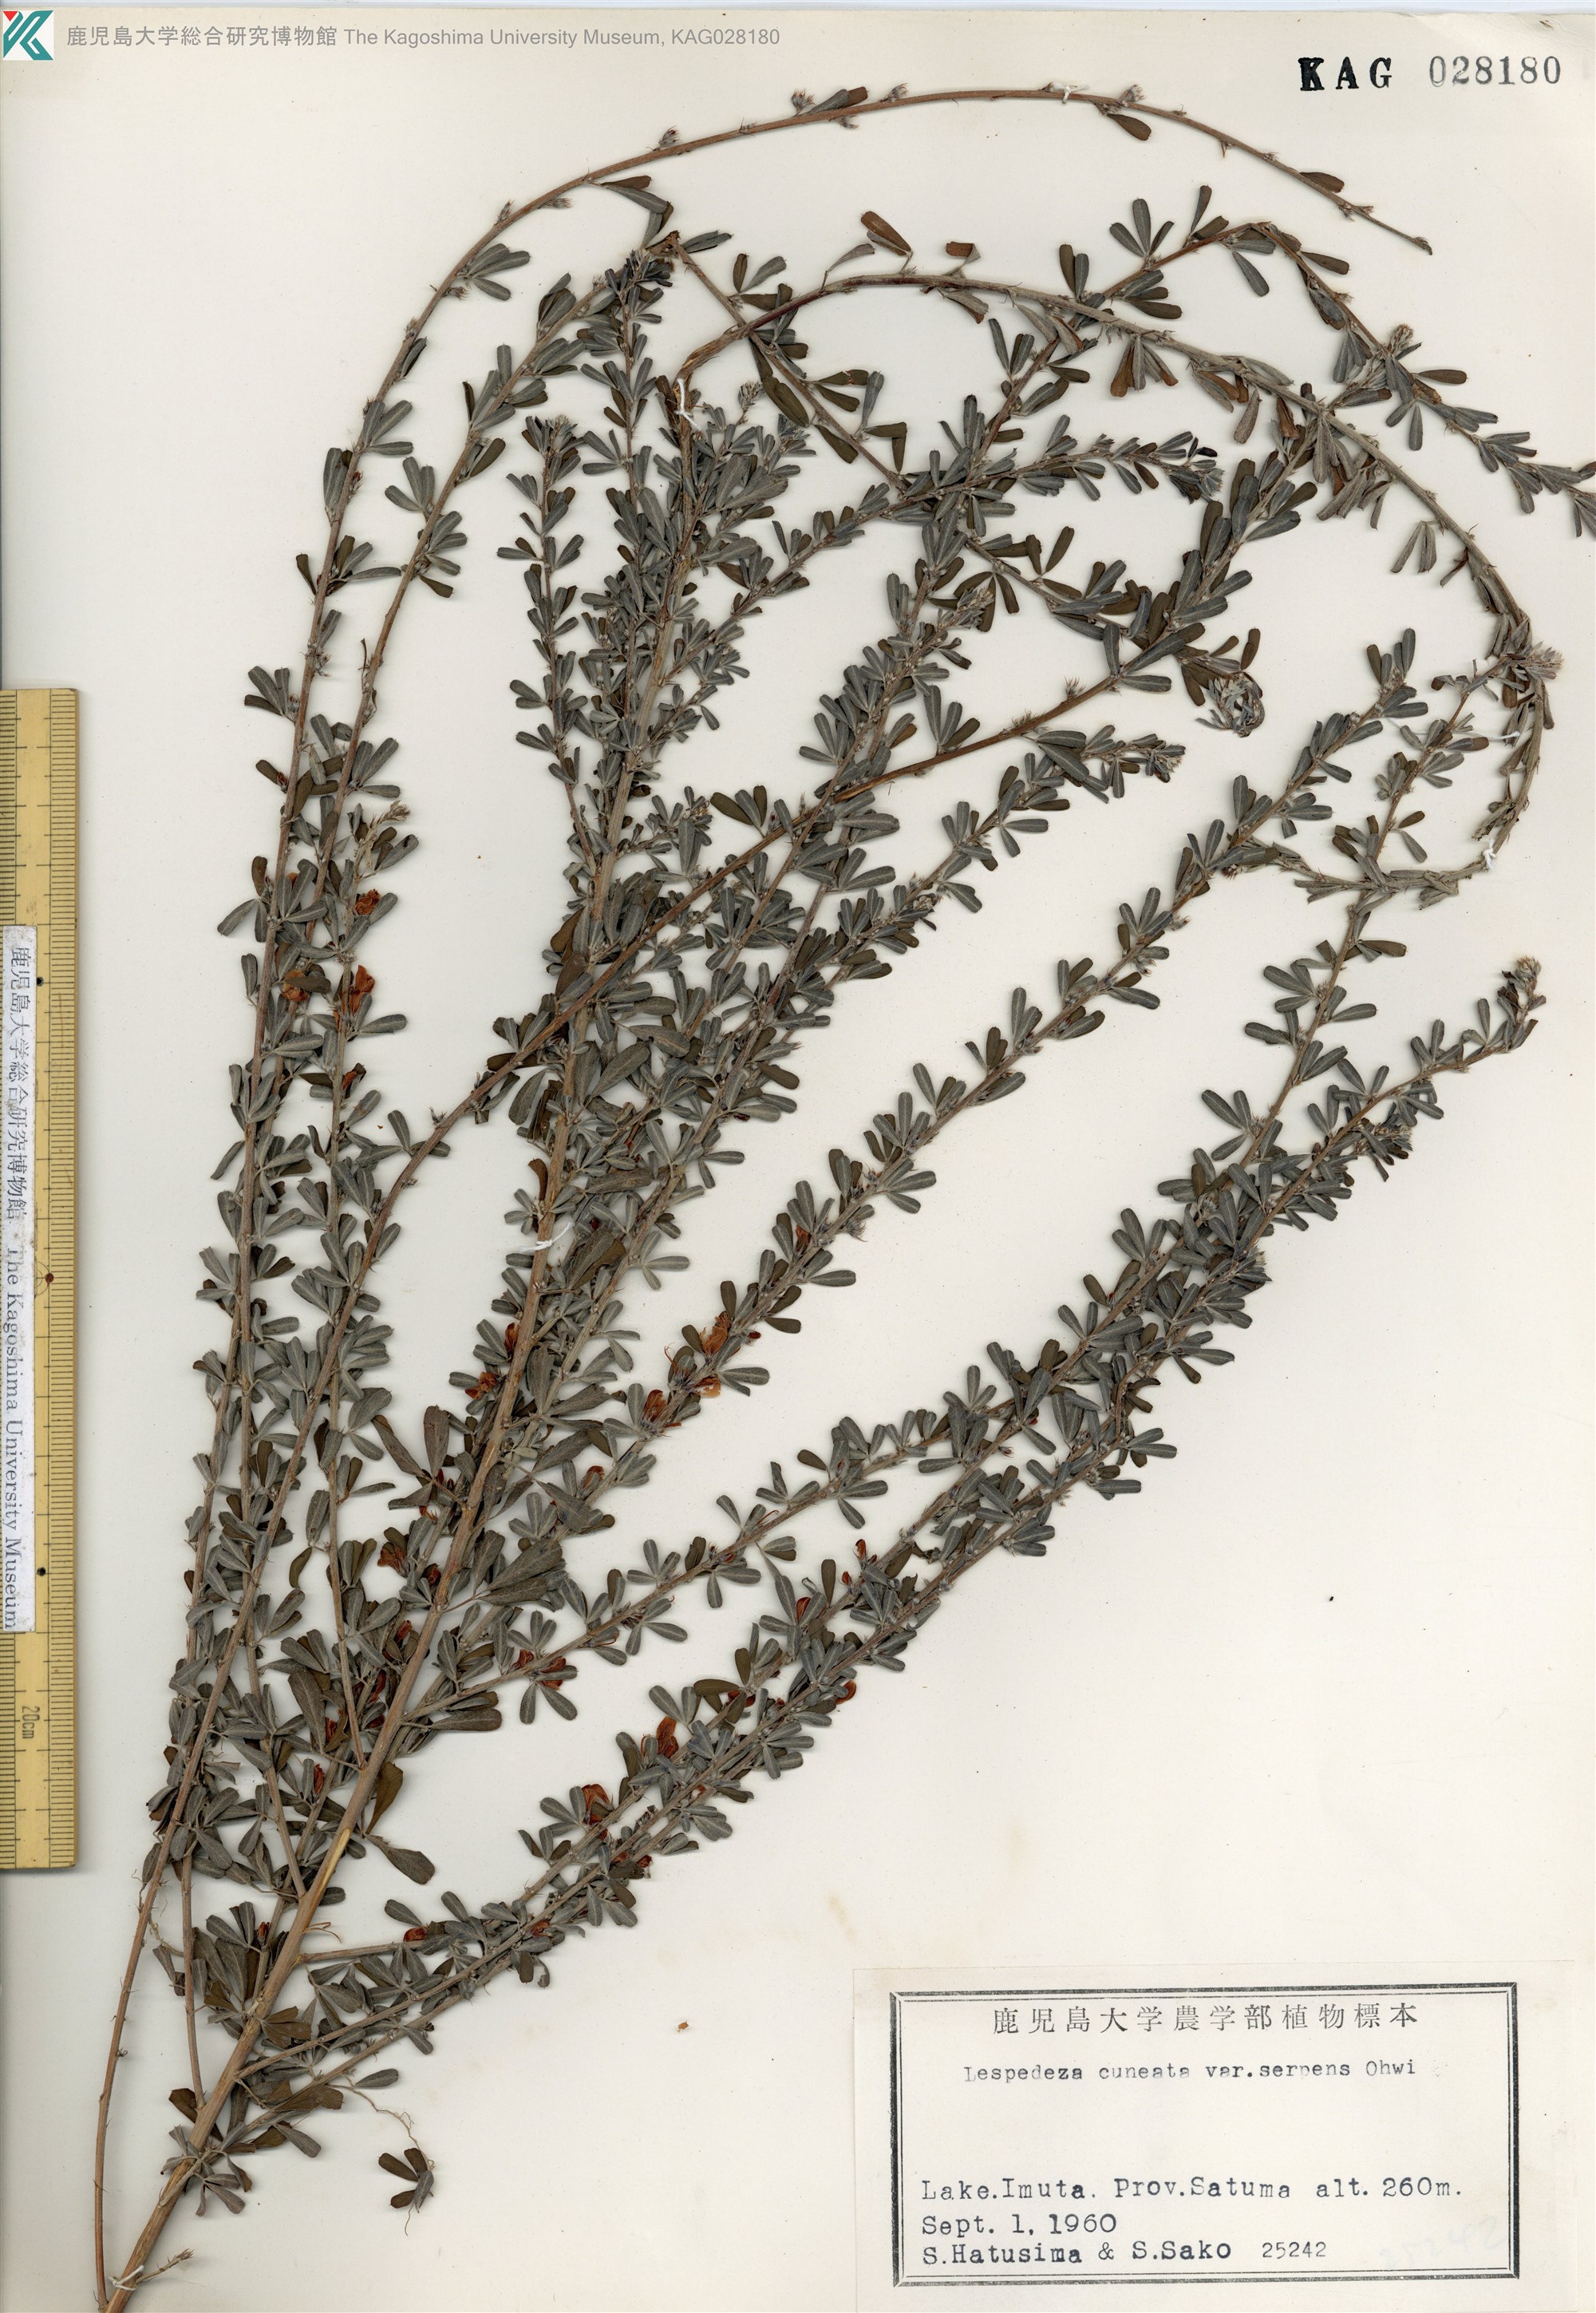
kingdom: Plantae
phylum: Tracheophyta
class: Magnoliopsida
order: Fabales
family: Fabaceae
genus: Lespedeza
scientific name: Lespedeza cuneata
